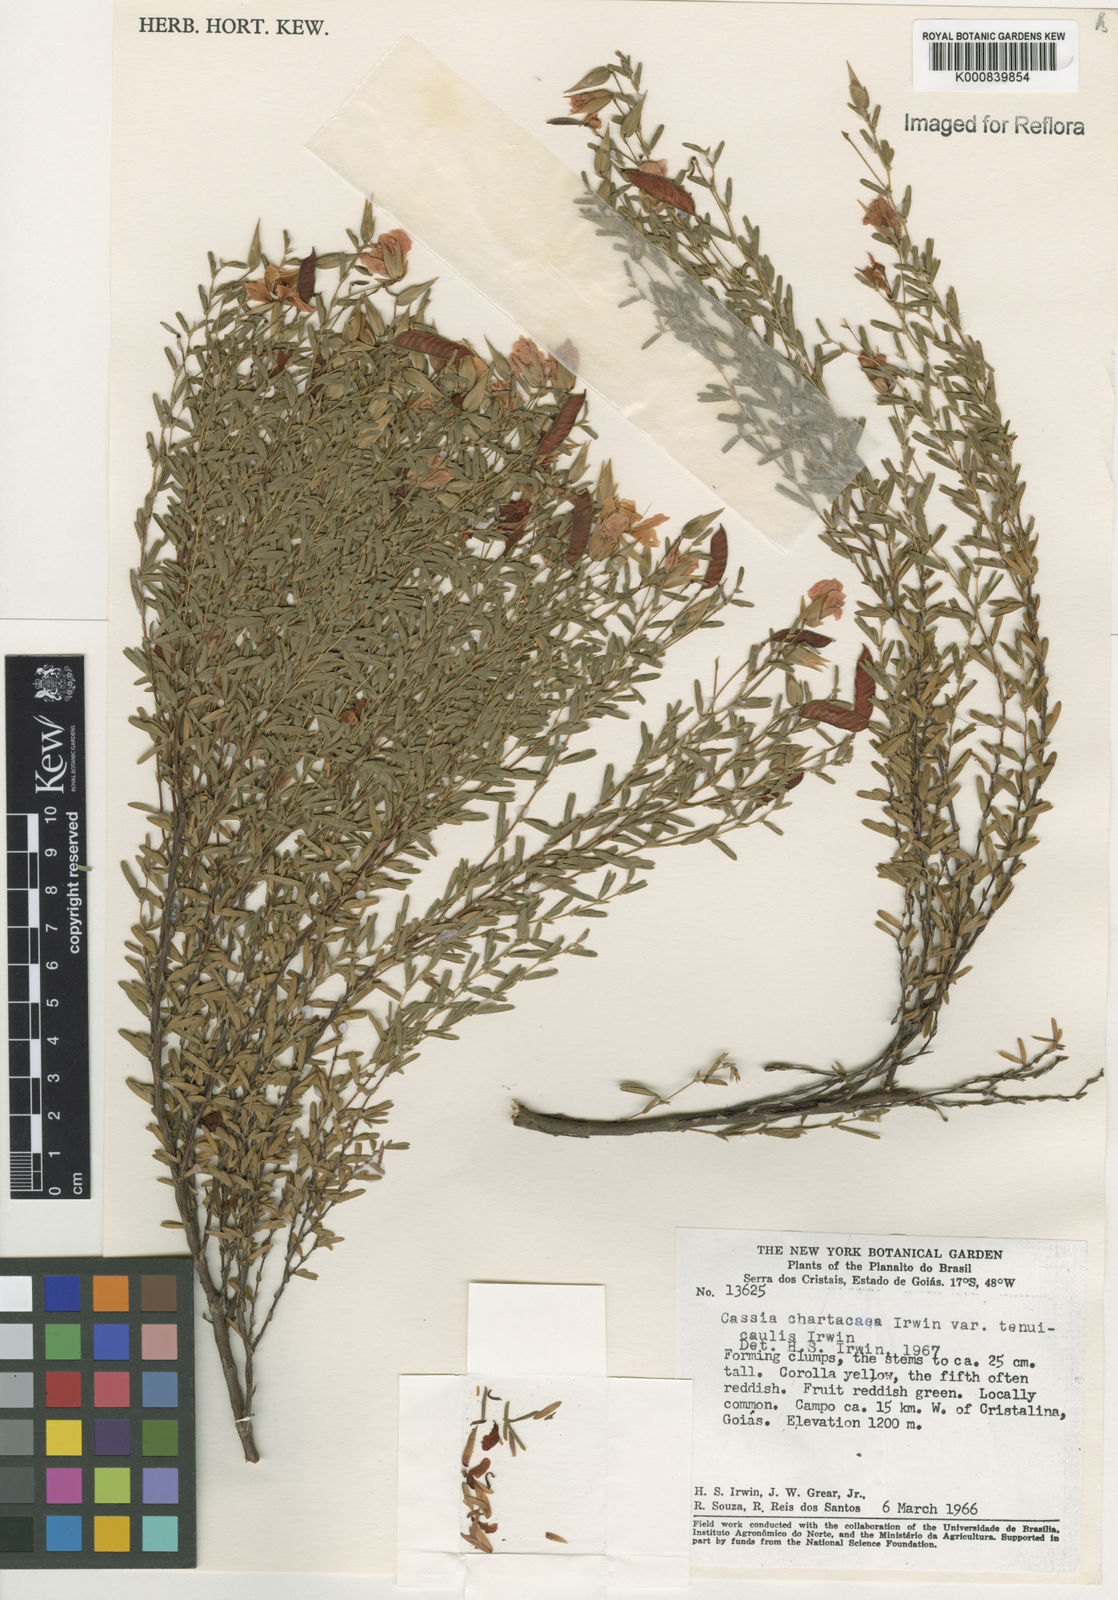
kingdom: Plantae
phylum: Tracheophyta
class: Magnoliopsida
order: Fabales
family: Fabaceae
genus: Chamaecrista
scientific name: Chamaecrista ramosa
